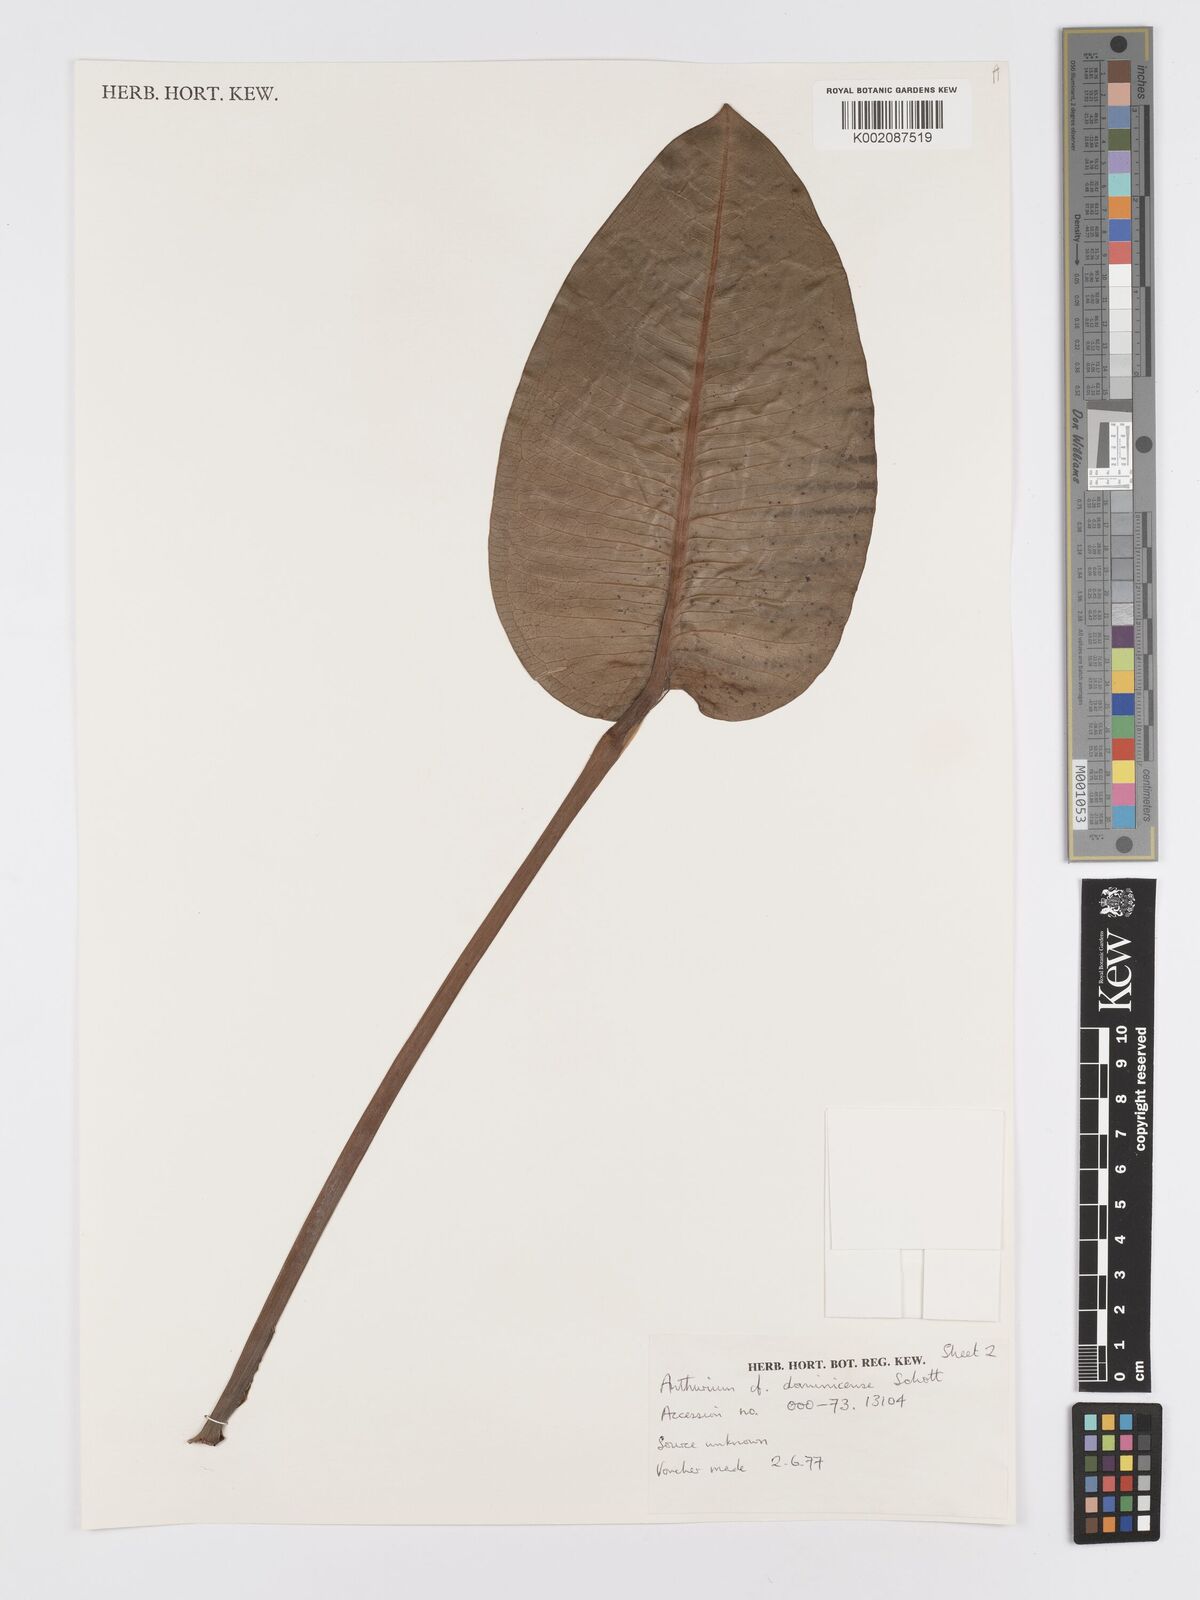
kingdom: Plantae
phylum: Tracheophyta
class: Liliopsida
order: Alismatales
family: Araceae
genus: Anthurium
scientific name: Anthurium dominicense
